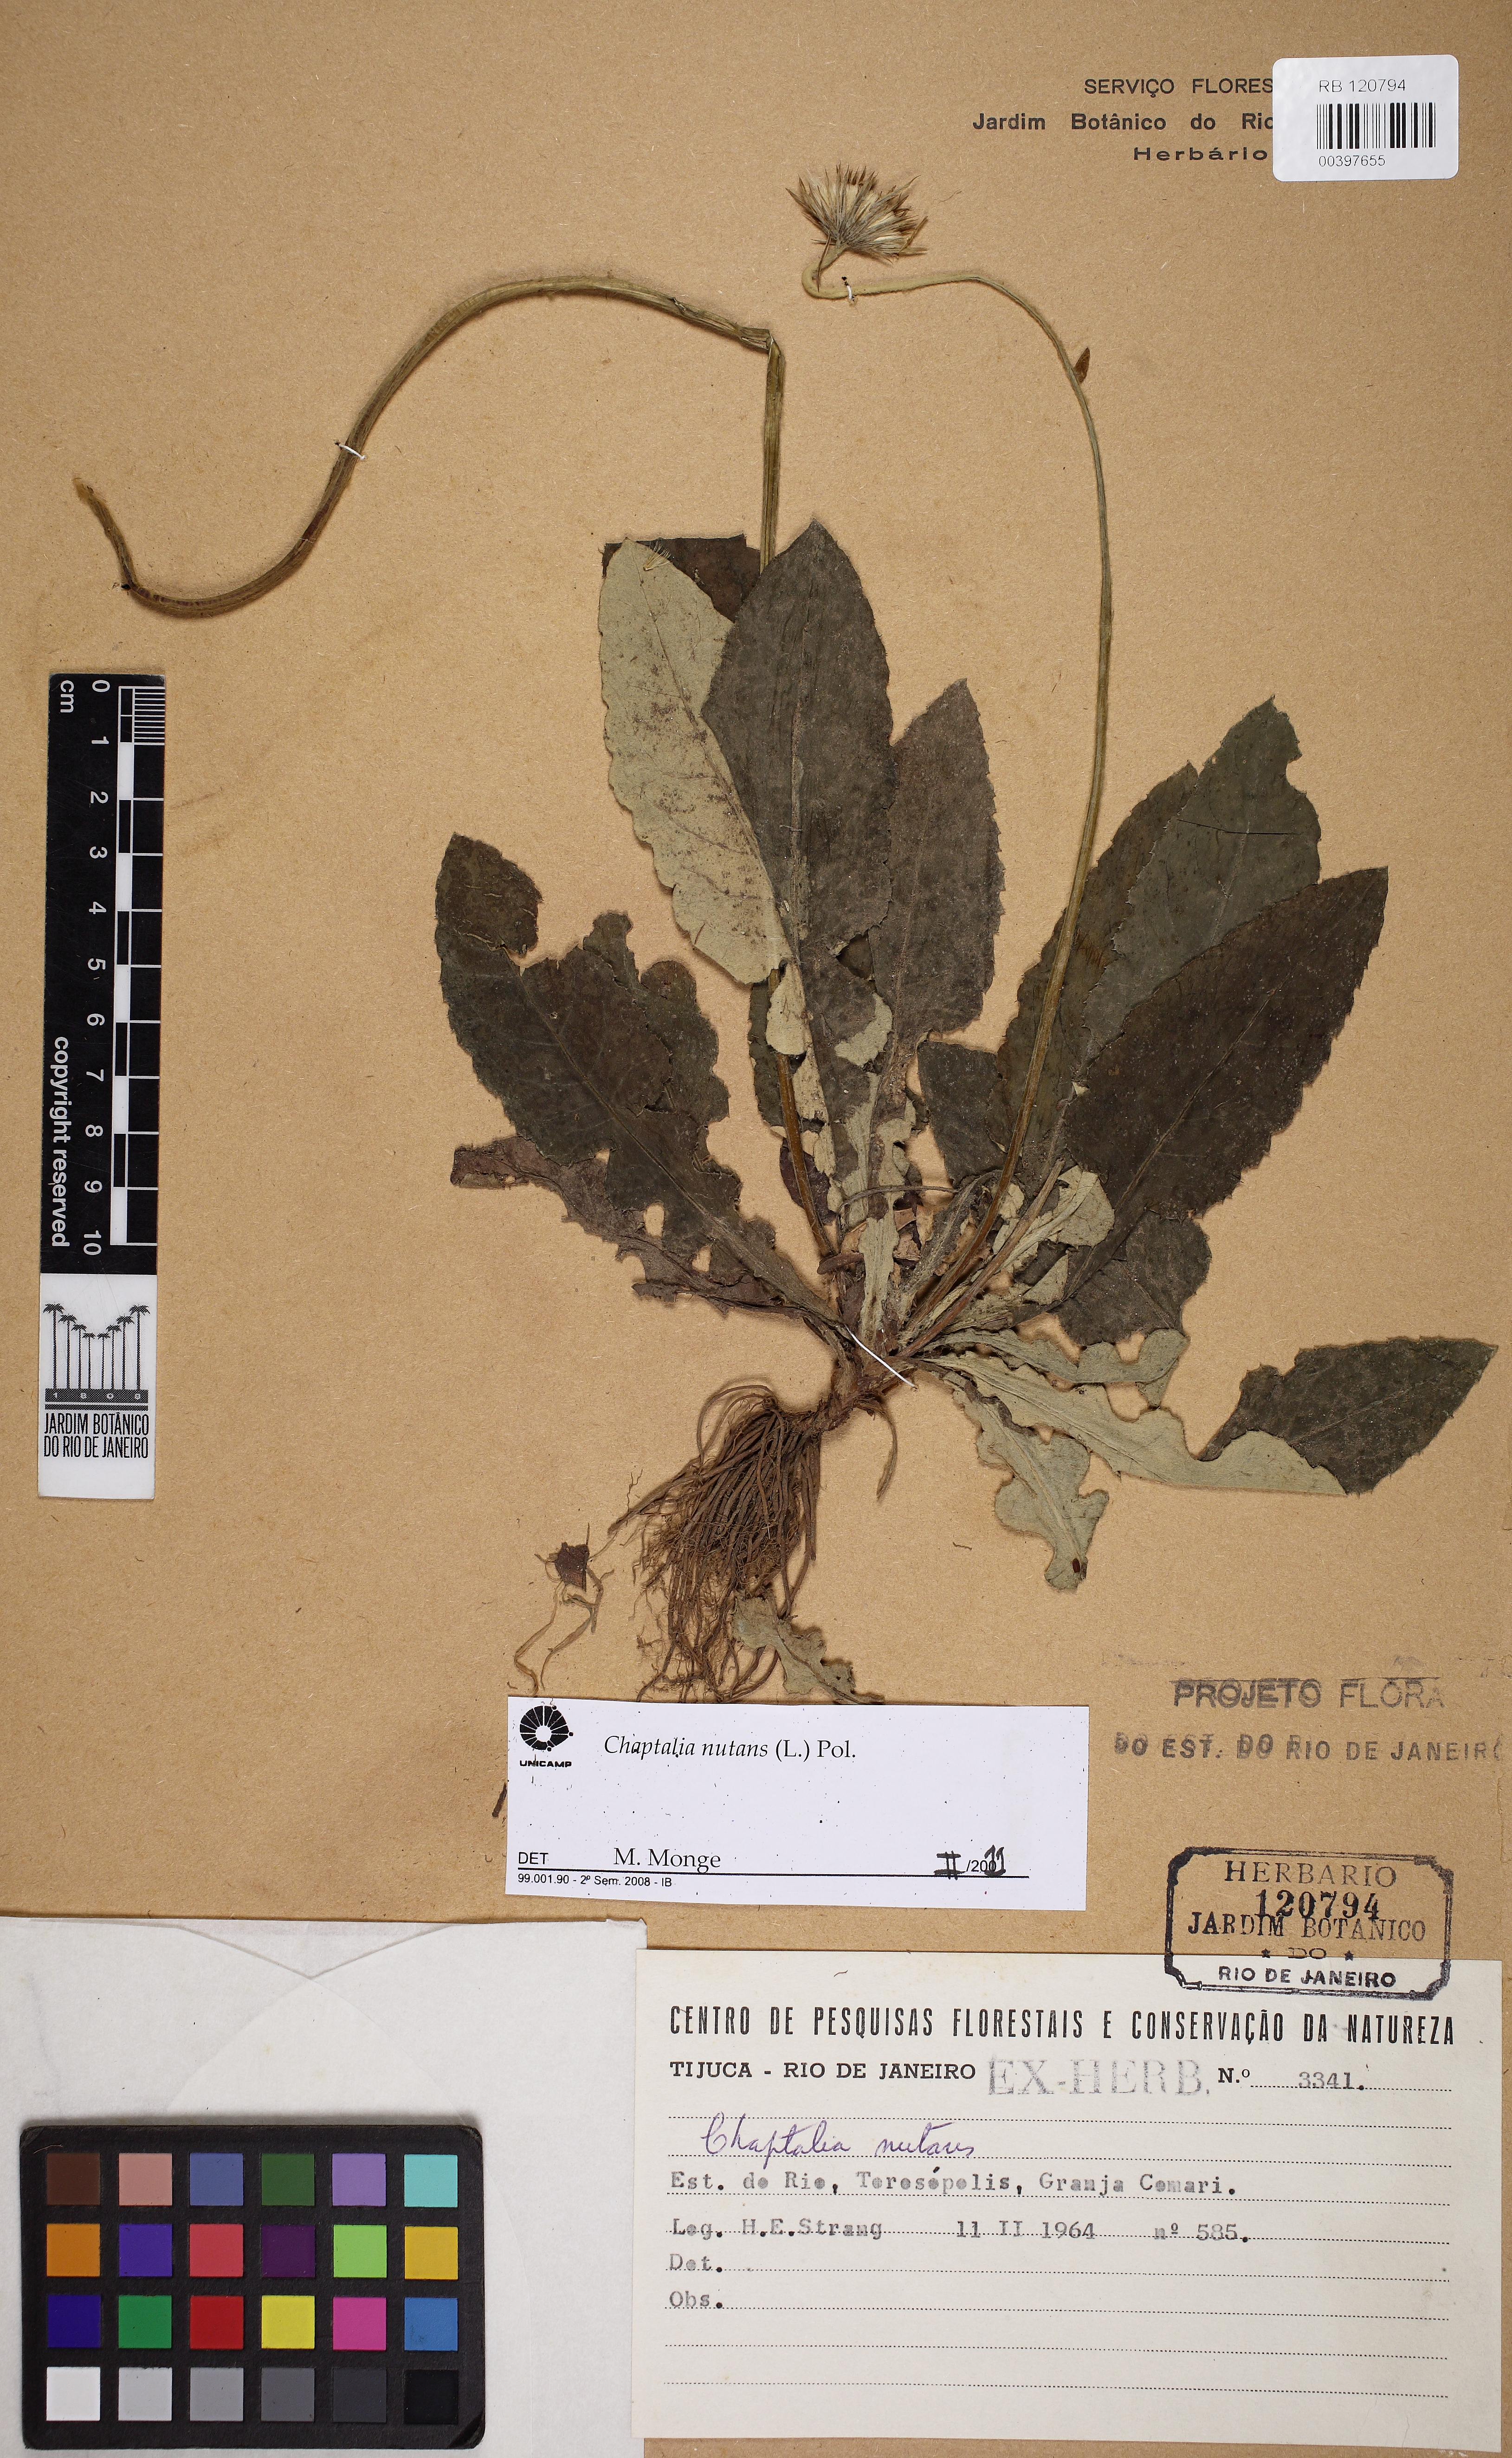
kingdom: Plantae
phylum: Tracheophyta
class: Magnoliopsida
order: Asterales
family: Asteraceae
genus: Chaptalia
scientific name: Chaptalia nutans
